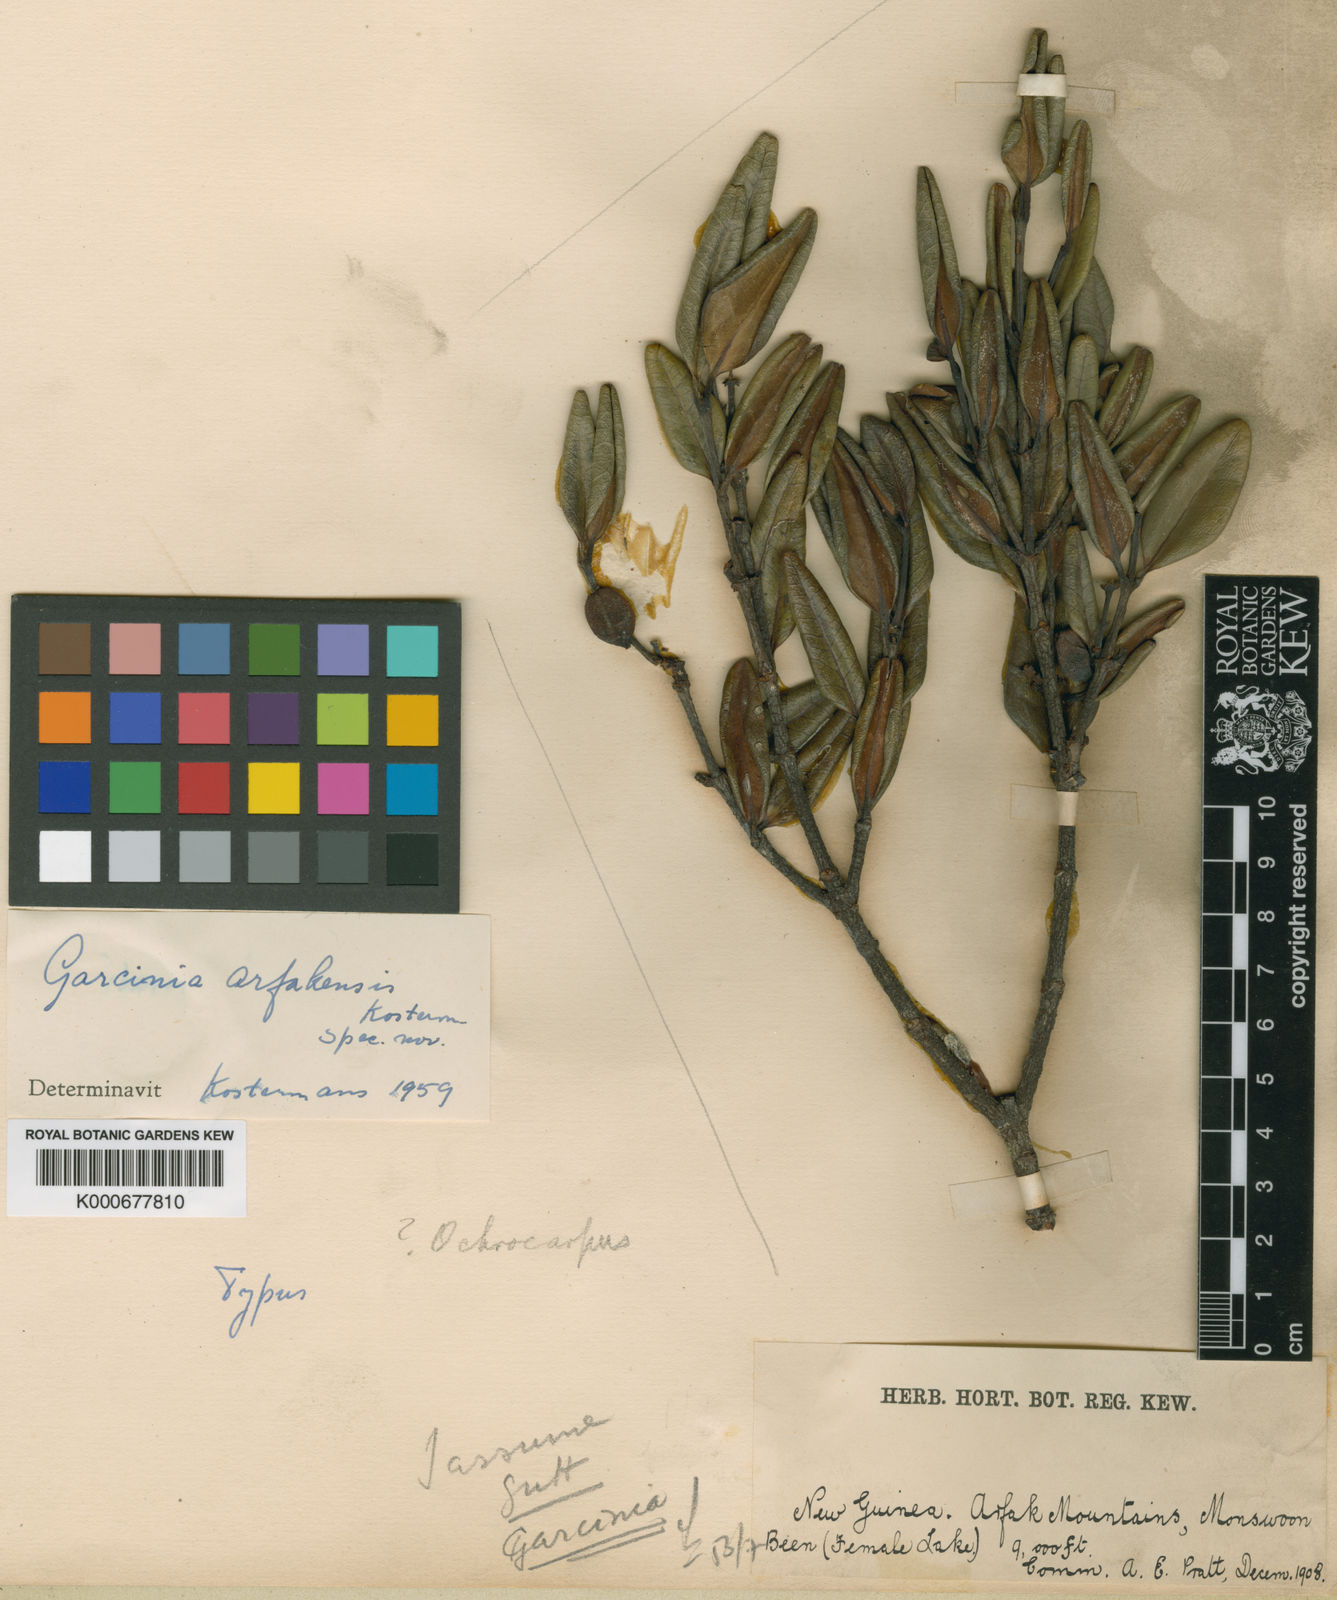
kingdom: Plantae
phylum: Tracheophyta
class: Magnoliopsida
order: Malpighiales
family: Clusiaceae
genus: Garcinia
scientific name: Garcinia
